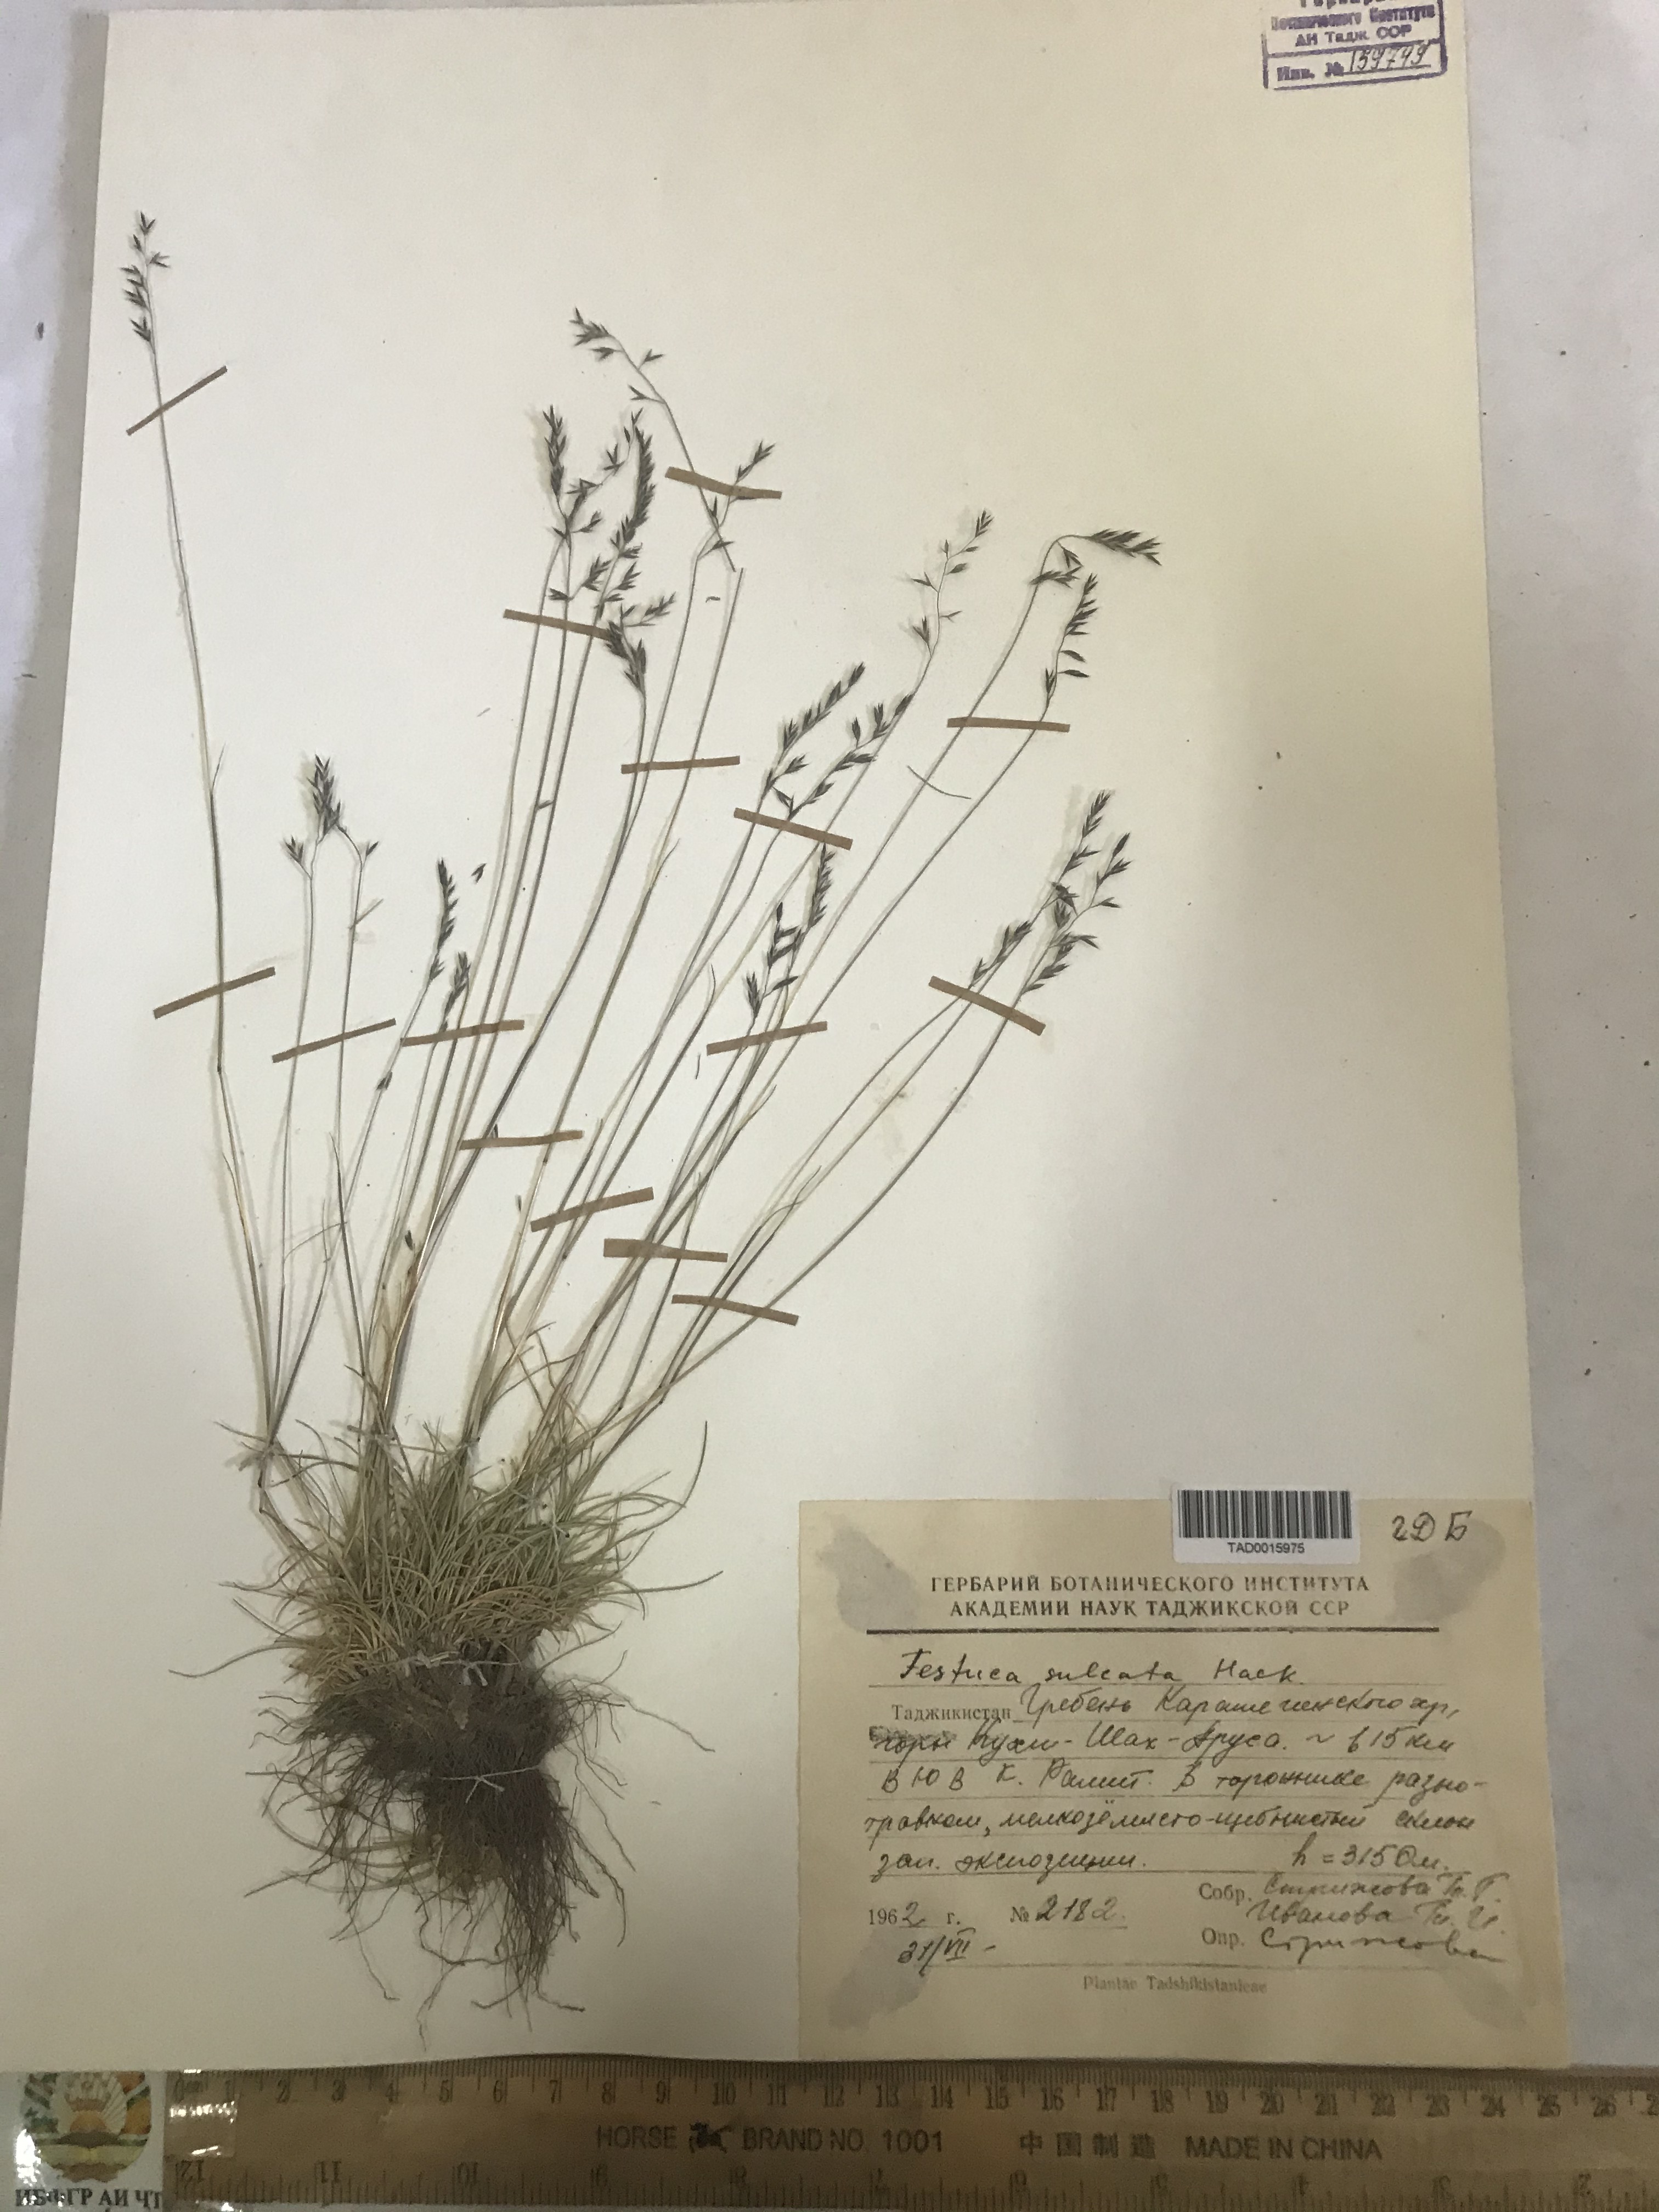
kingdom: Plantae
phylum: Tracheophyta
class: Liliopsida
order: Poales
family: Poaceae
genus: Festuca
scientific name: Festuca sulcata
